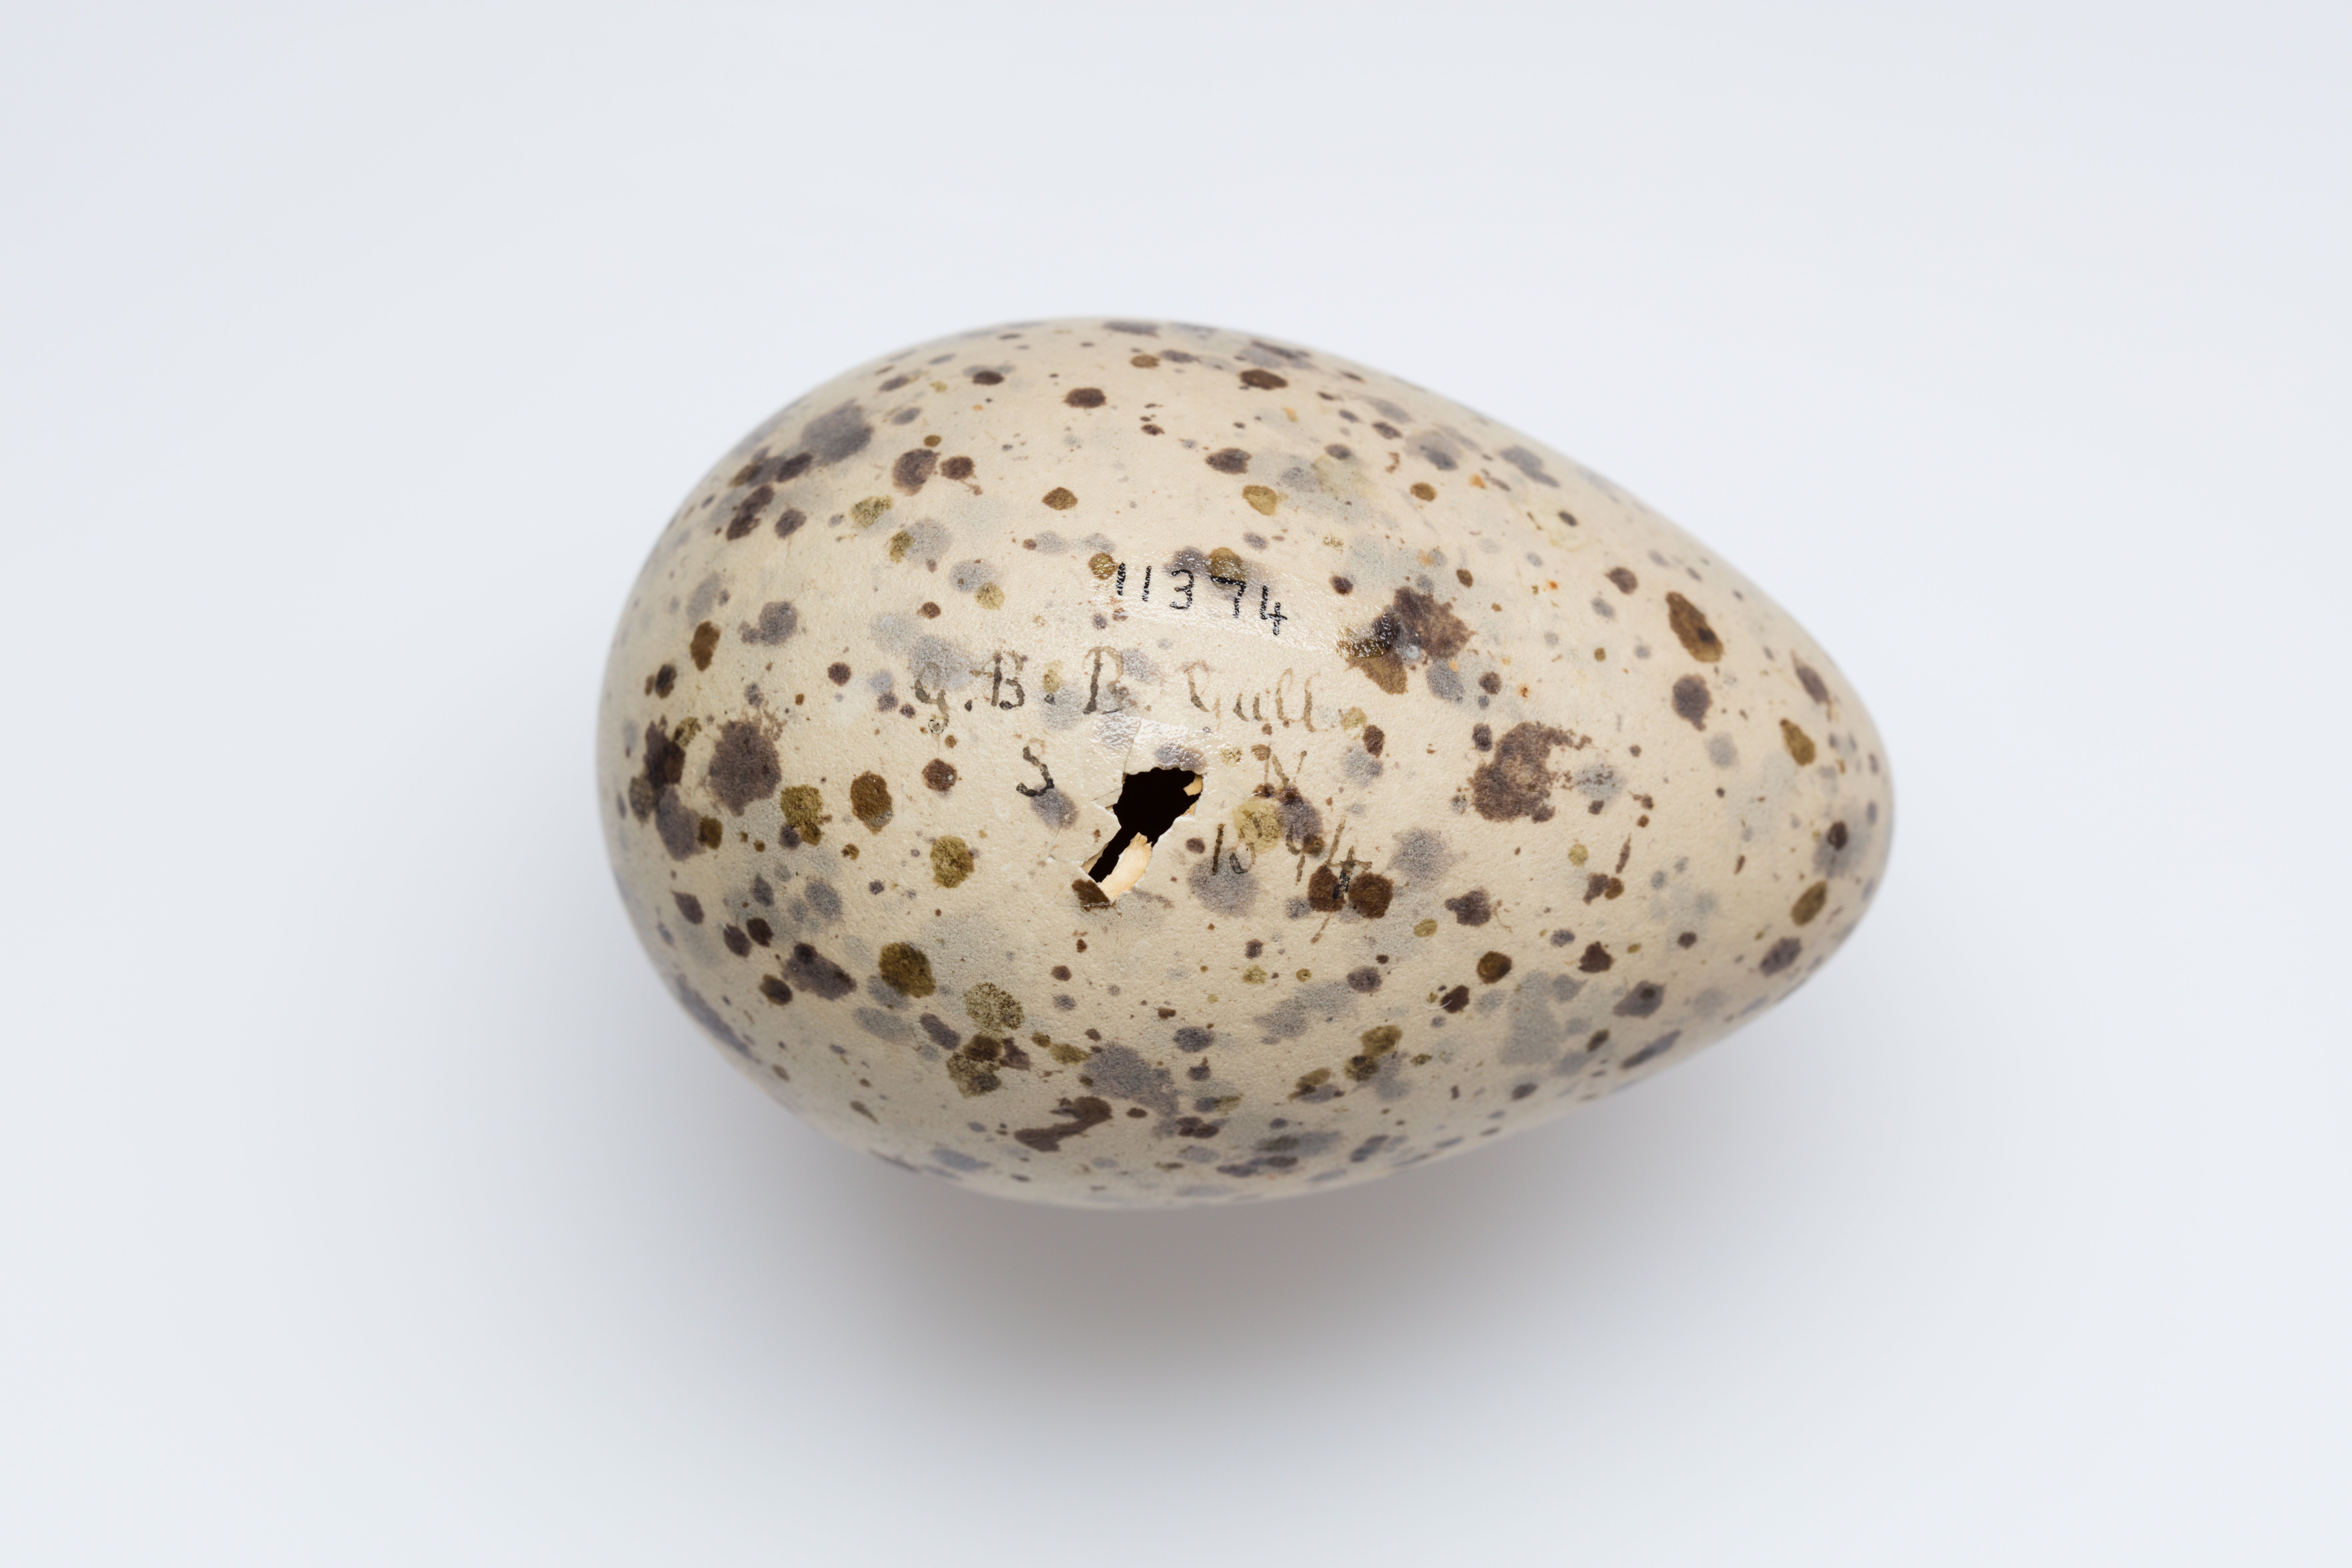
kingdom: Animalia
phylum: Chordata
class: Aves
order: Charadriiformes
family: Laridae
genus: Larus
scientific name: Larus marinus
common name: Great black-backed gull
